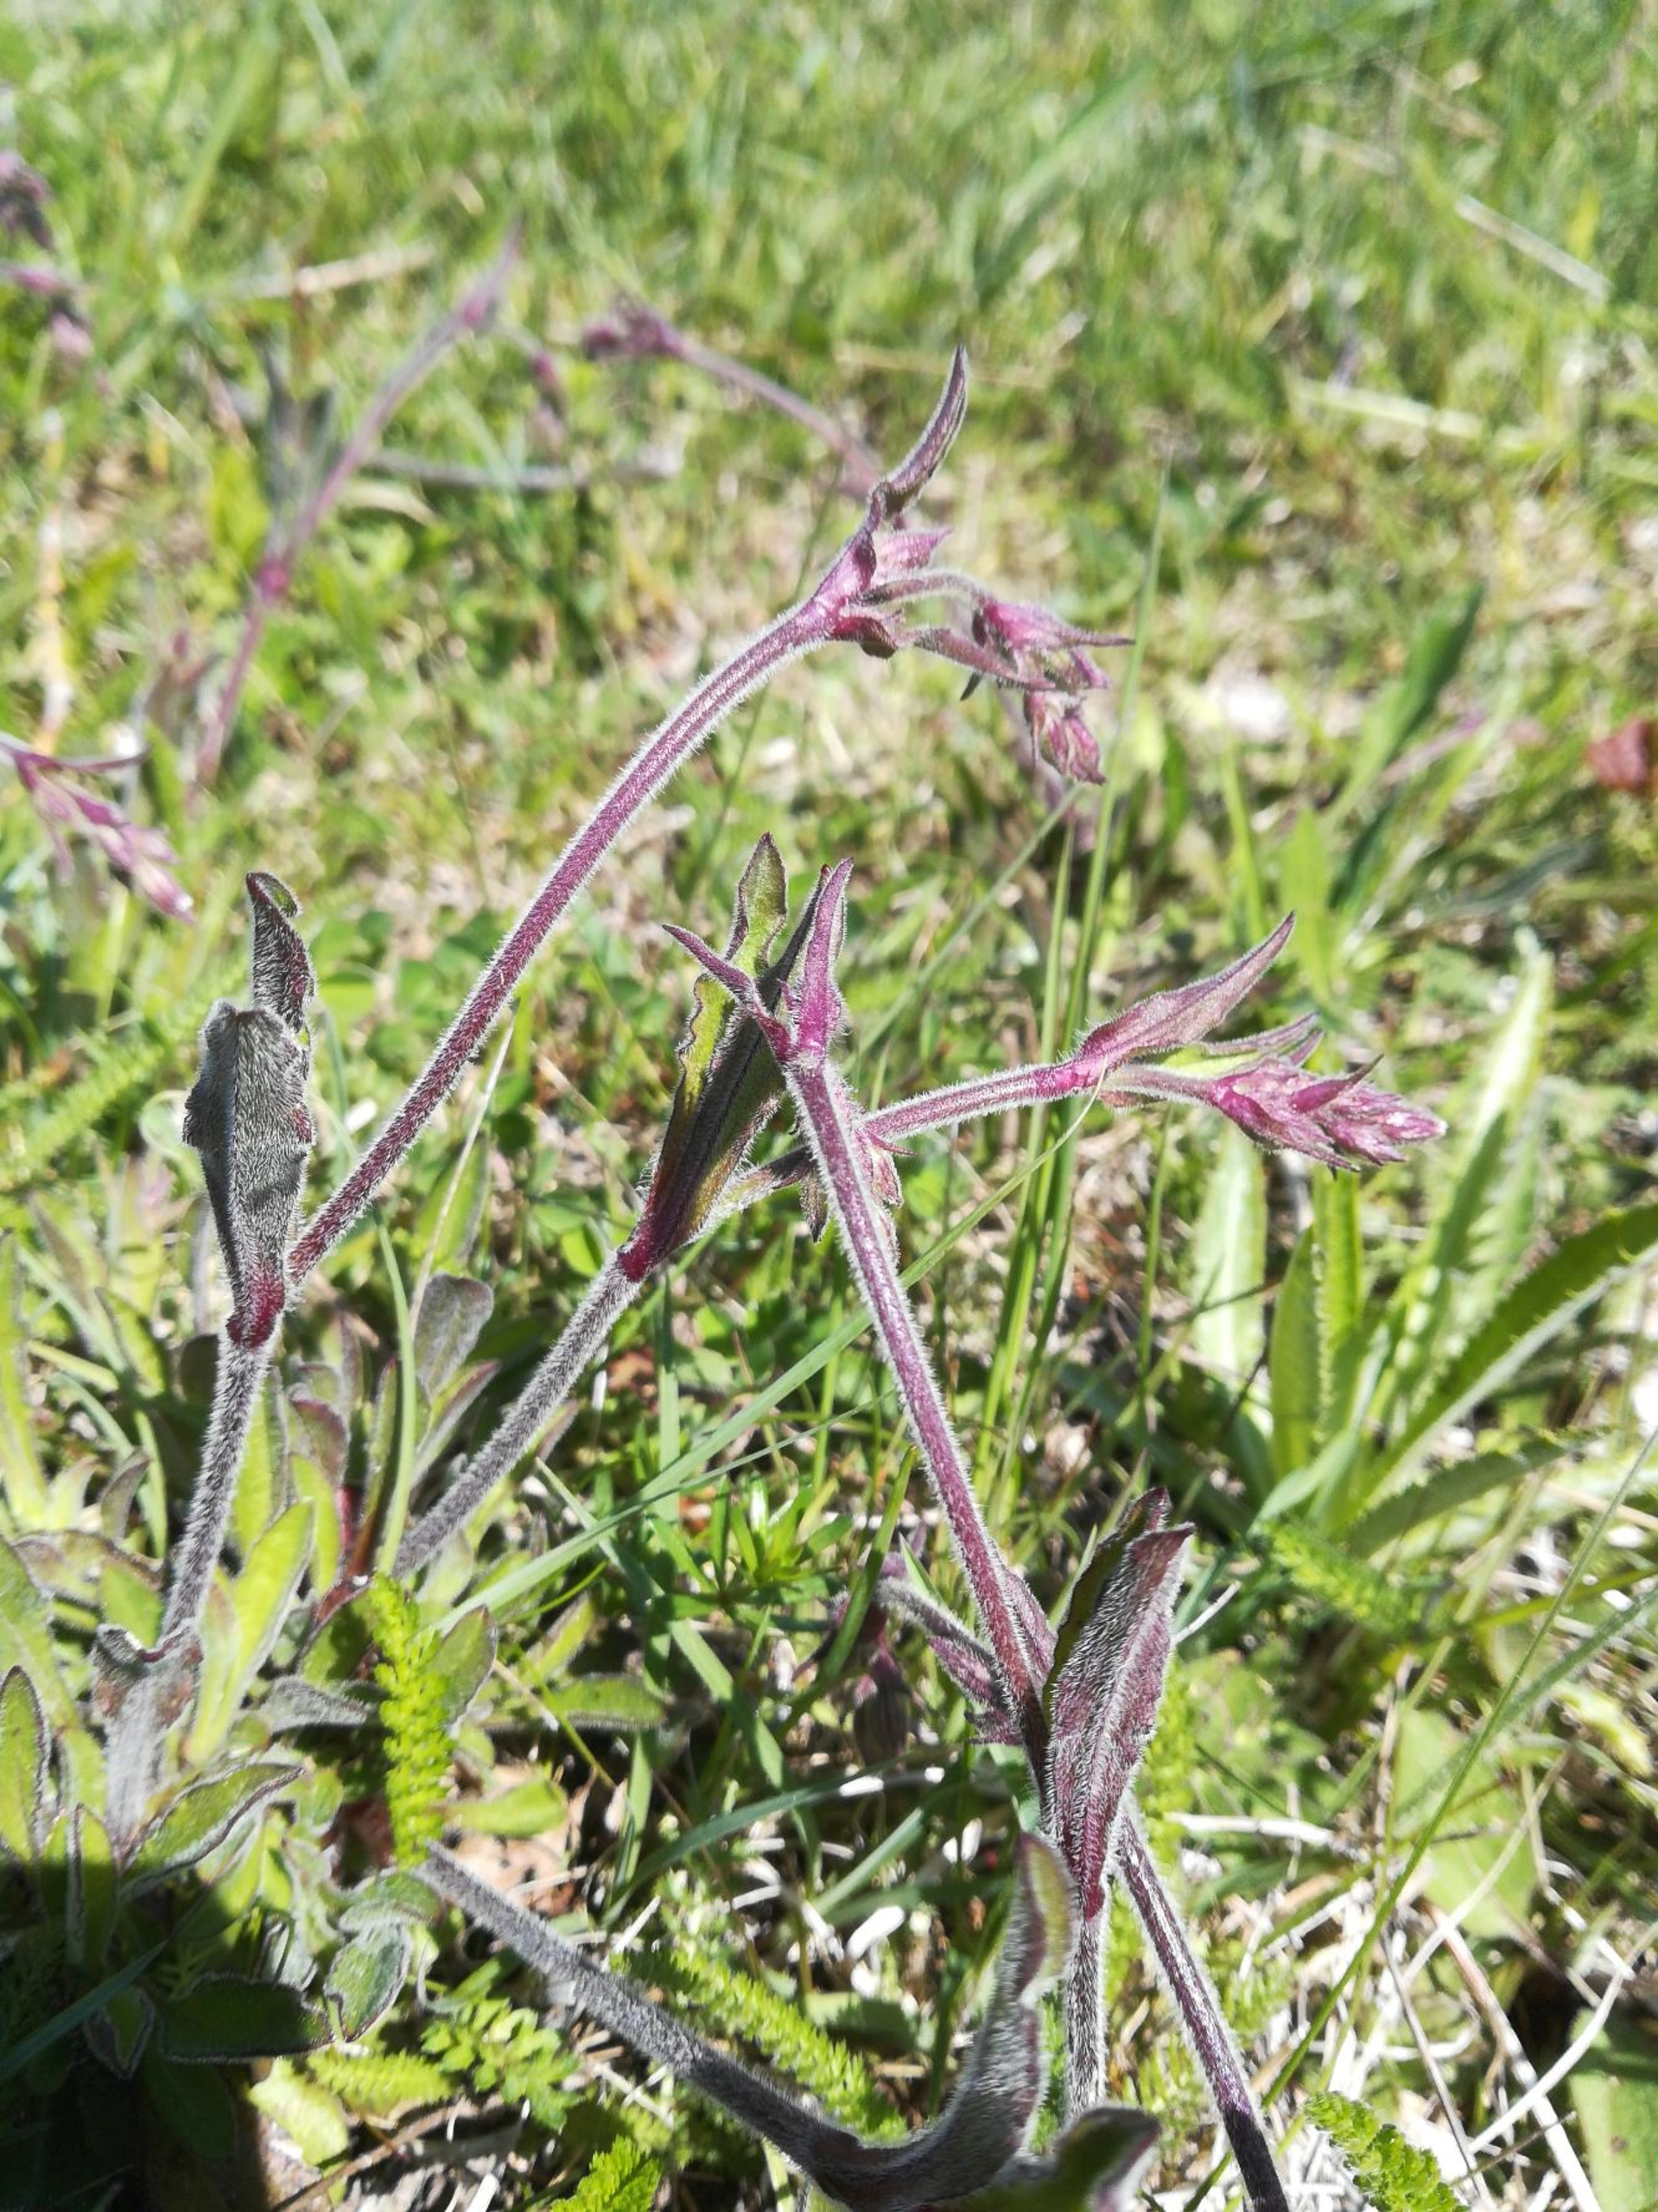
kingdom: Plantae
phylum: Tracheophyta
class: Magnoliopsida
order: Caryophyllales
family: Caryophyllaceae
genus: Silene
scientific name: Silene nutans
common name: Nikkende limurt
